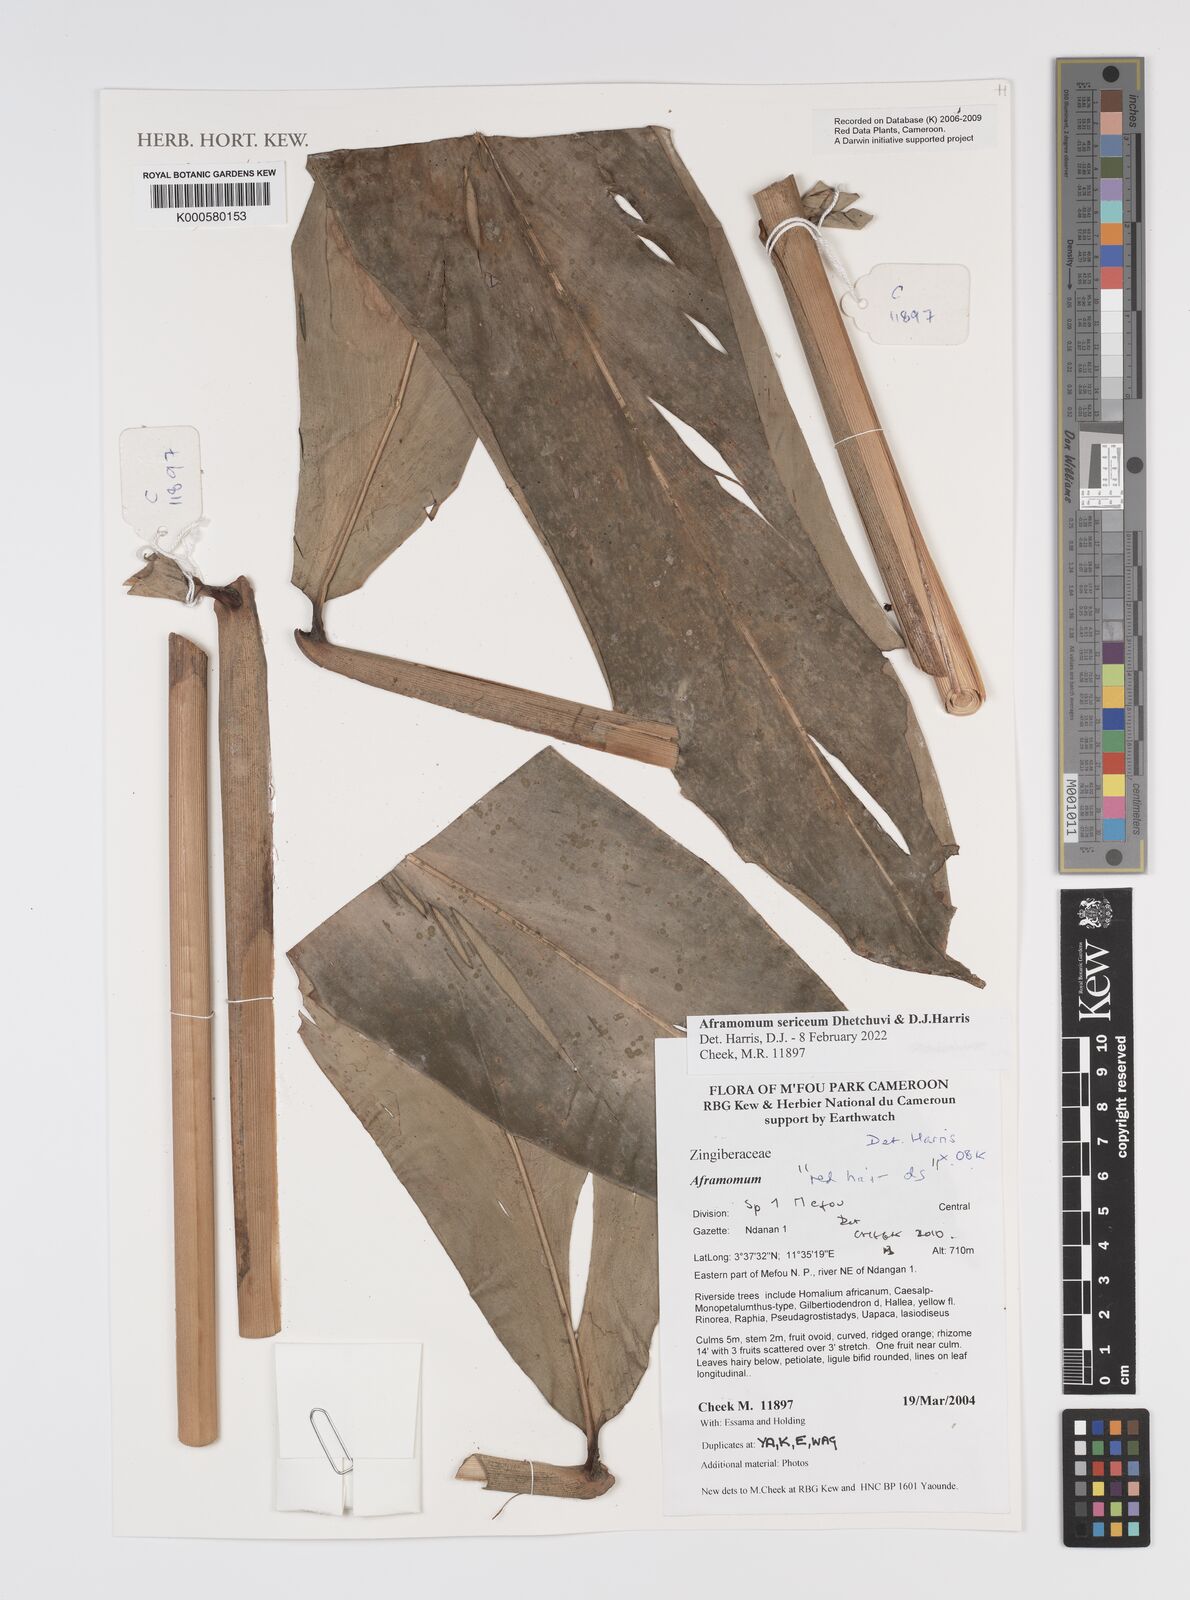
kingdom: Plantae
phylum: Tracheophyta
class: Liliopsida
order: Zingiberales
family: Zingiberaceae
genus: Aframomum
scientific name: Aframomum
